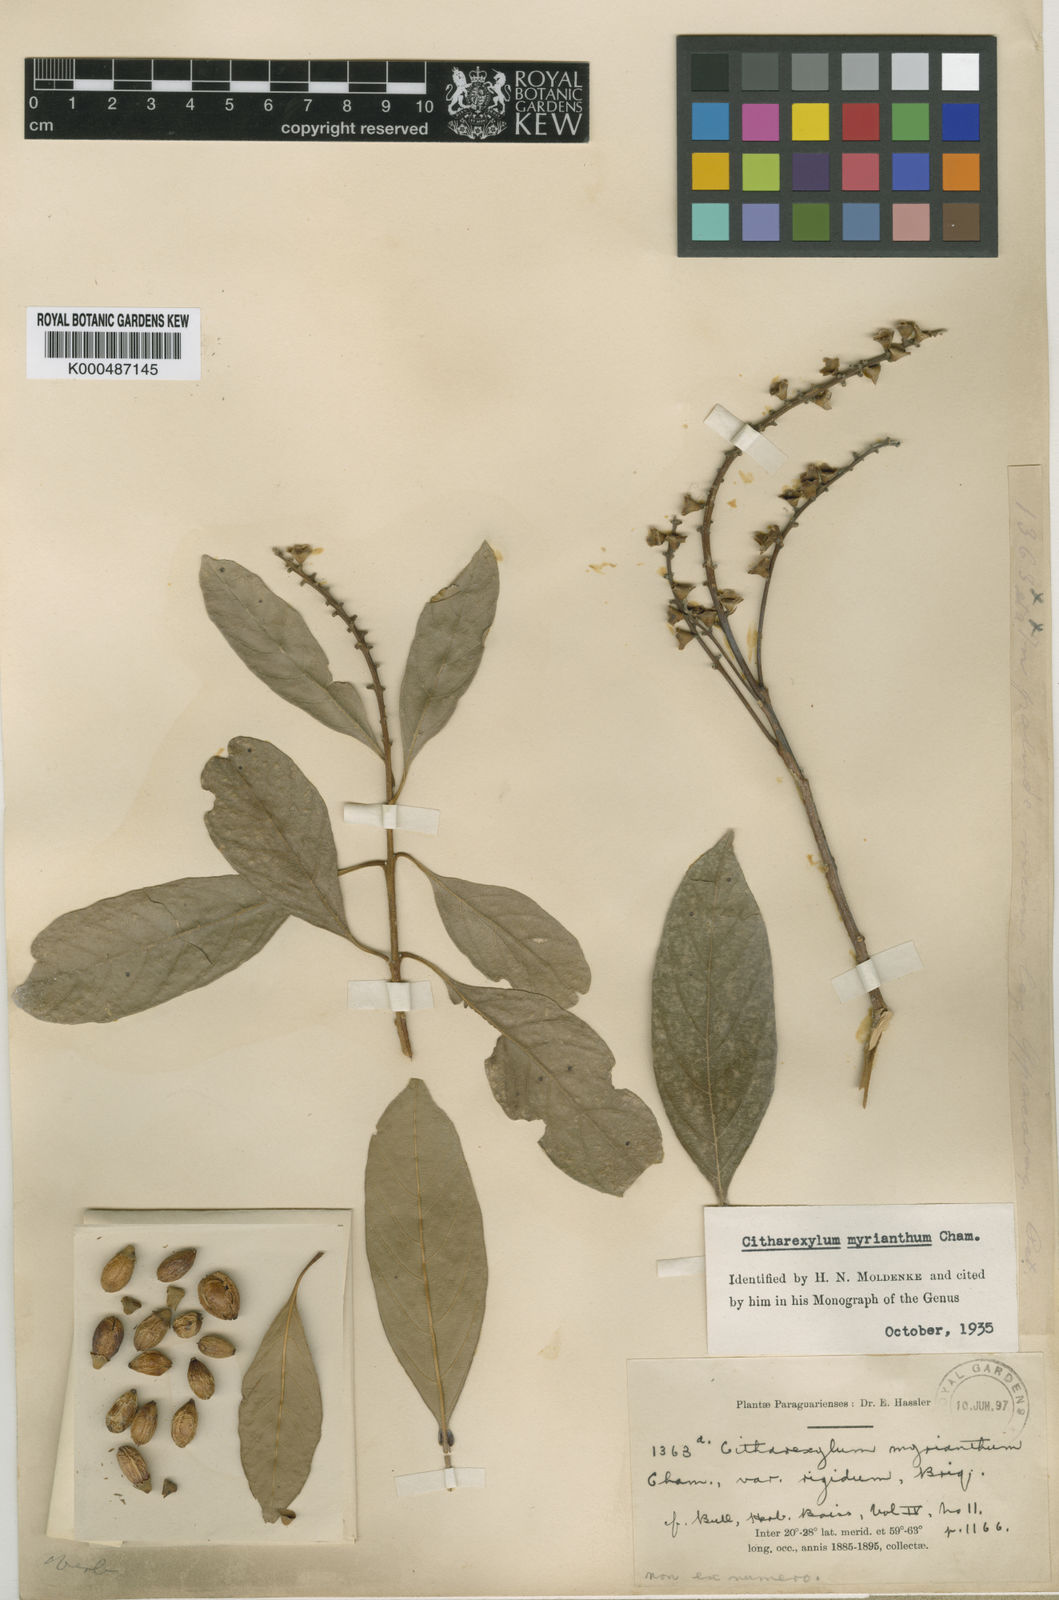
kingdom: Plantae
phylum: Tracheophyta
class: Magnoliopsida
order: Lamiales
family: Verbenaceae
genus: Citharexylum
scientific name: Citharexylum myrianthum
